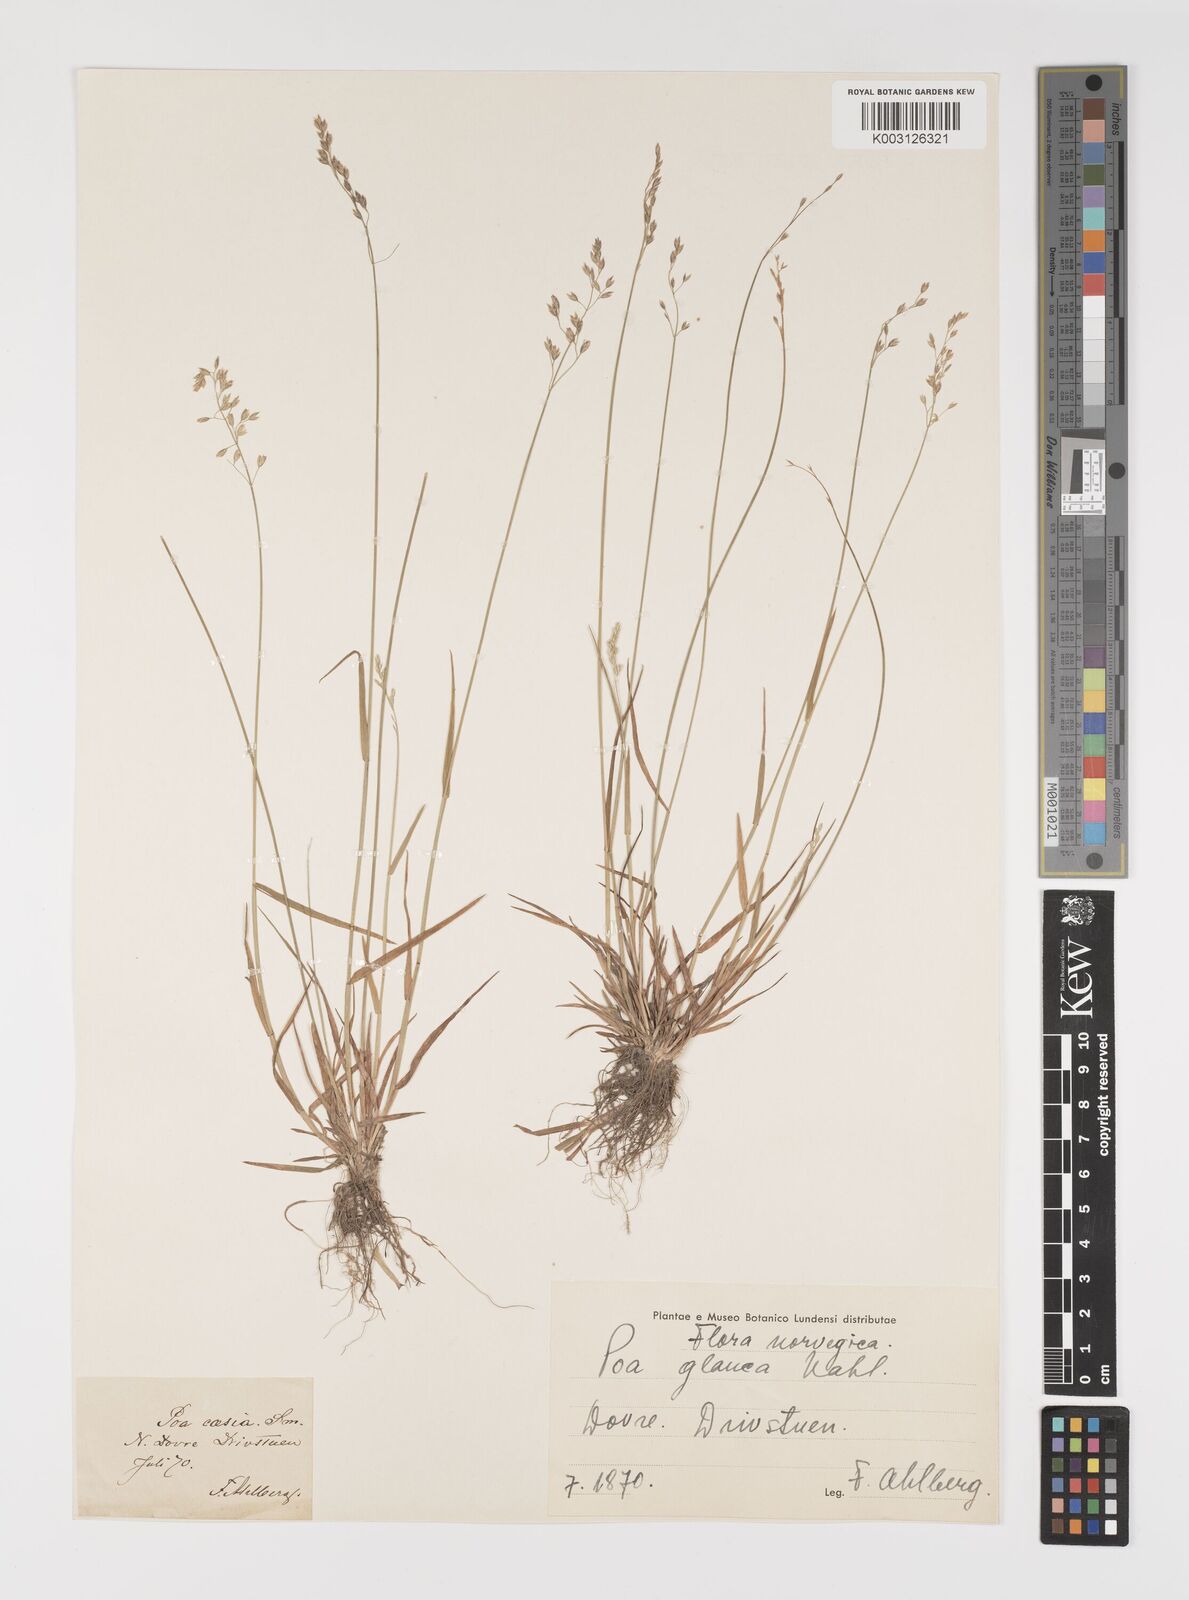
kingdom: Plantae
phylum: Tracheophyta
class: Liliopsida
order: Poales
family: Poaceae
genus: Poa
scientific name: Poa glauca
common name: Glaucous bluegrass
